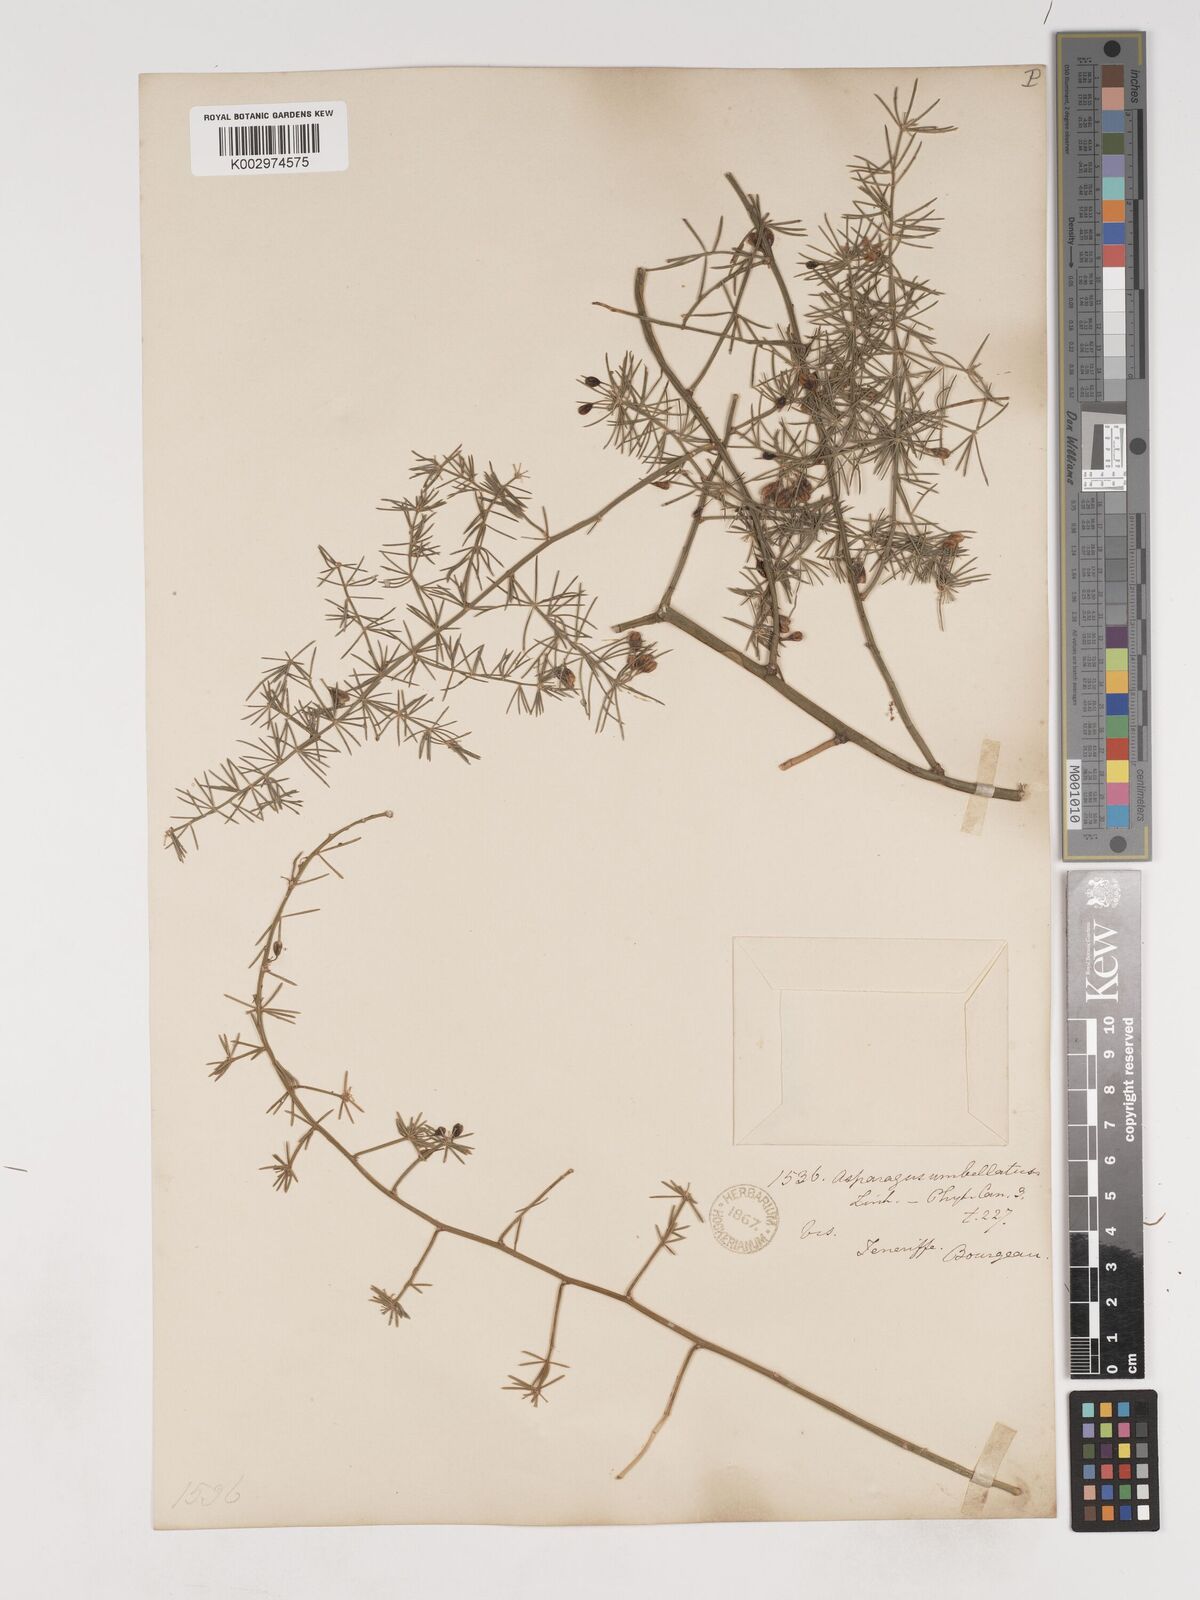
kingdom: Plantae
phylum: Tracheophyta
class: Liliopsida
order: Asparagales
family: Asparagaceae
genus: Asparagus
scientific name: Asparagus umbellatus
